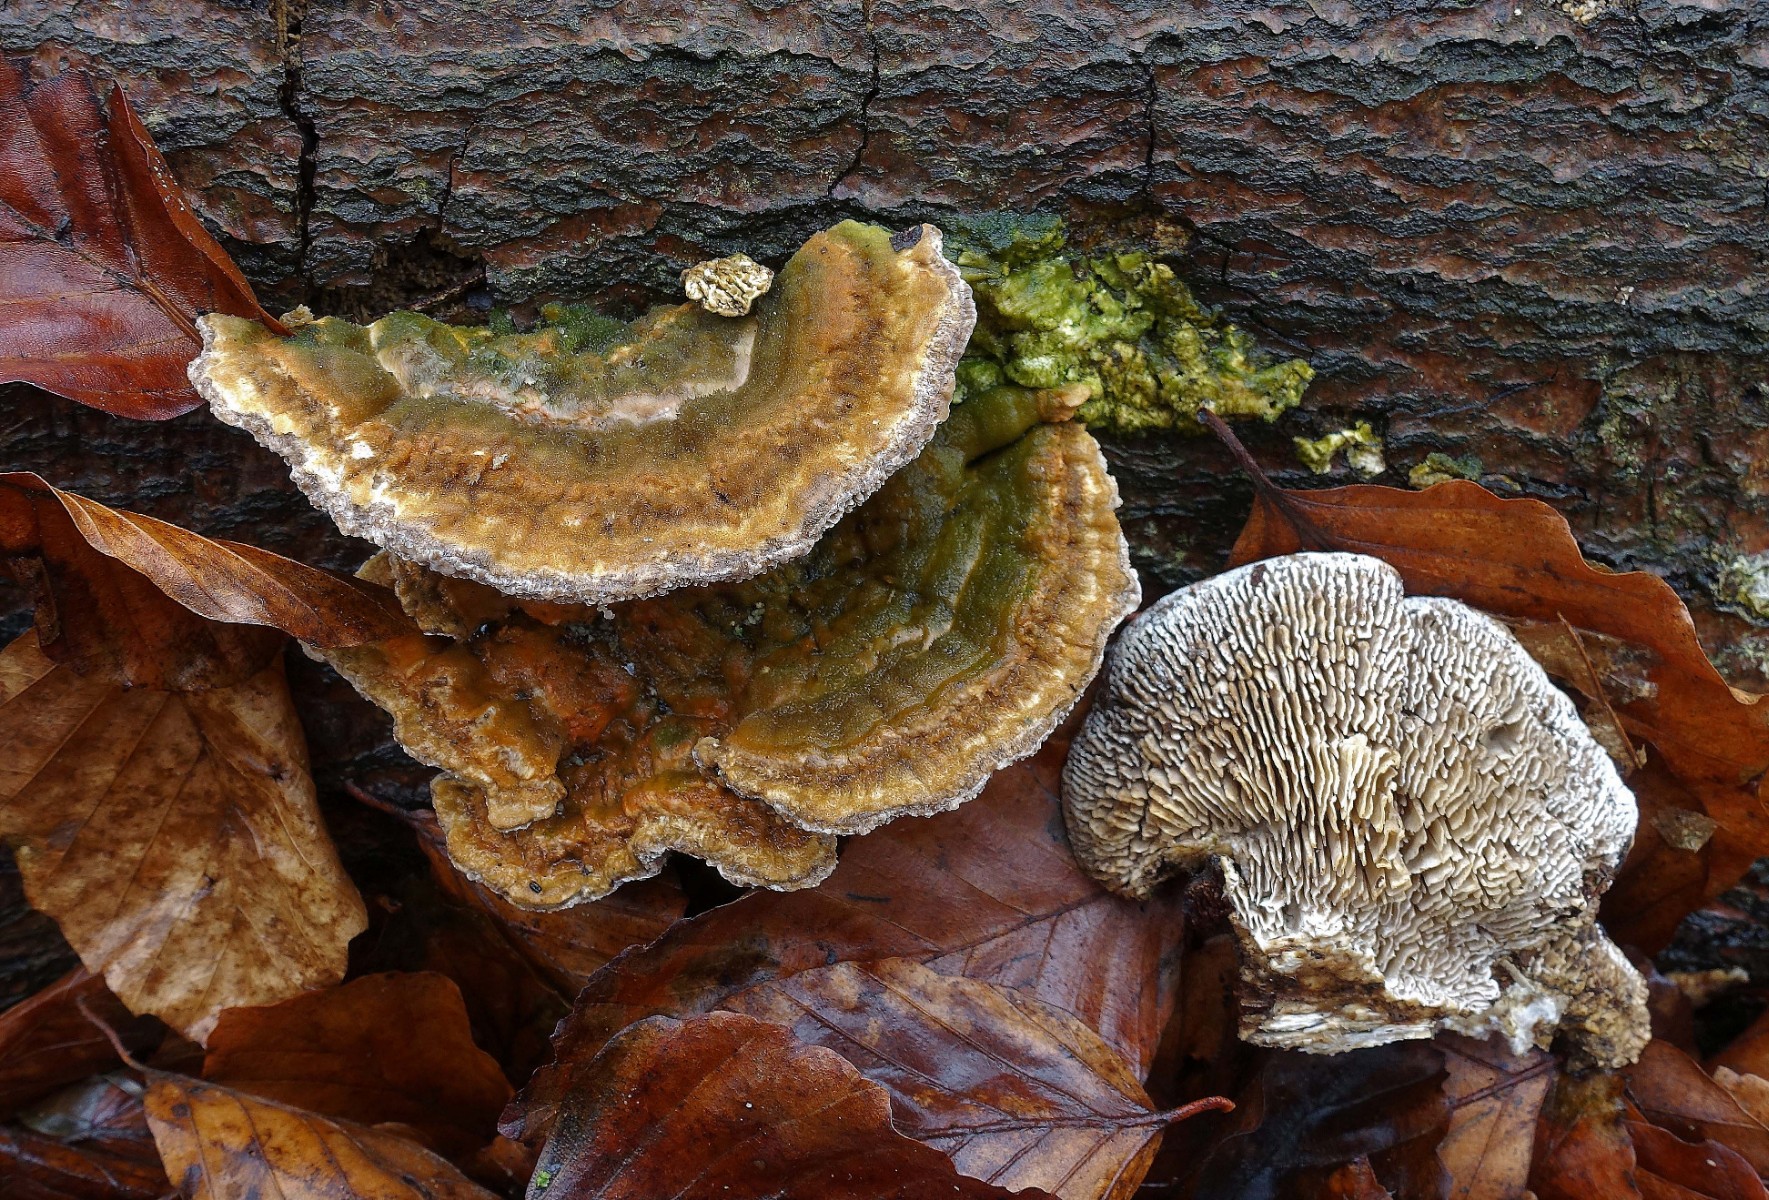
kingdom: Fungi
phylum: Basidiomycota
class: Agaricomycetes
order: Polyporales
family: Polyporaceae
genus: Lenzites
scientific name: Lenzites betulinus
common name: birke-læderporesvamp
